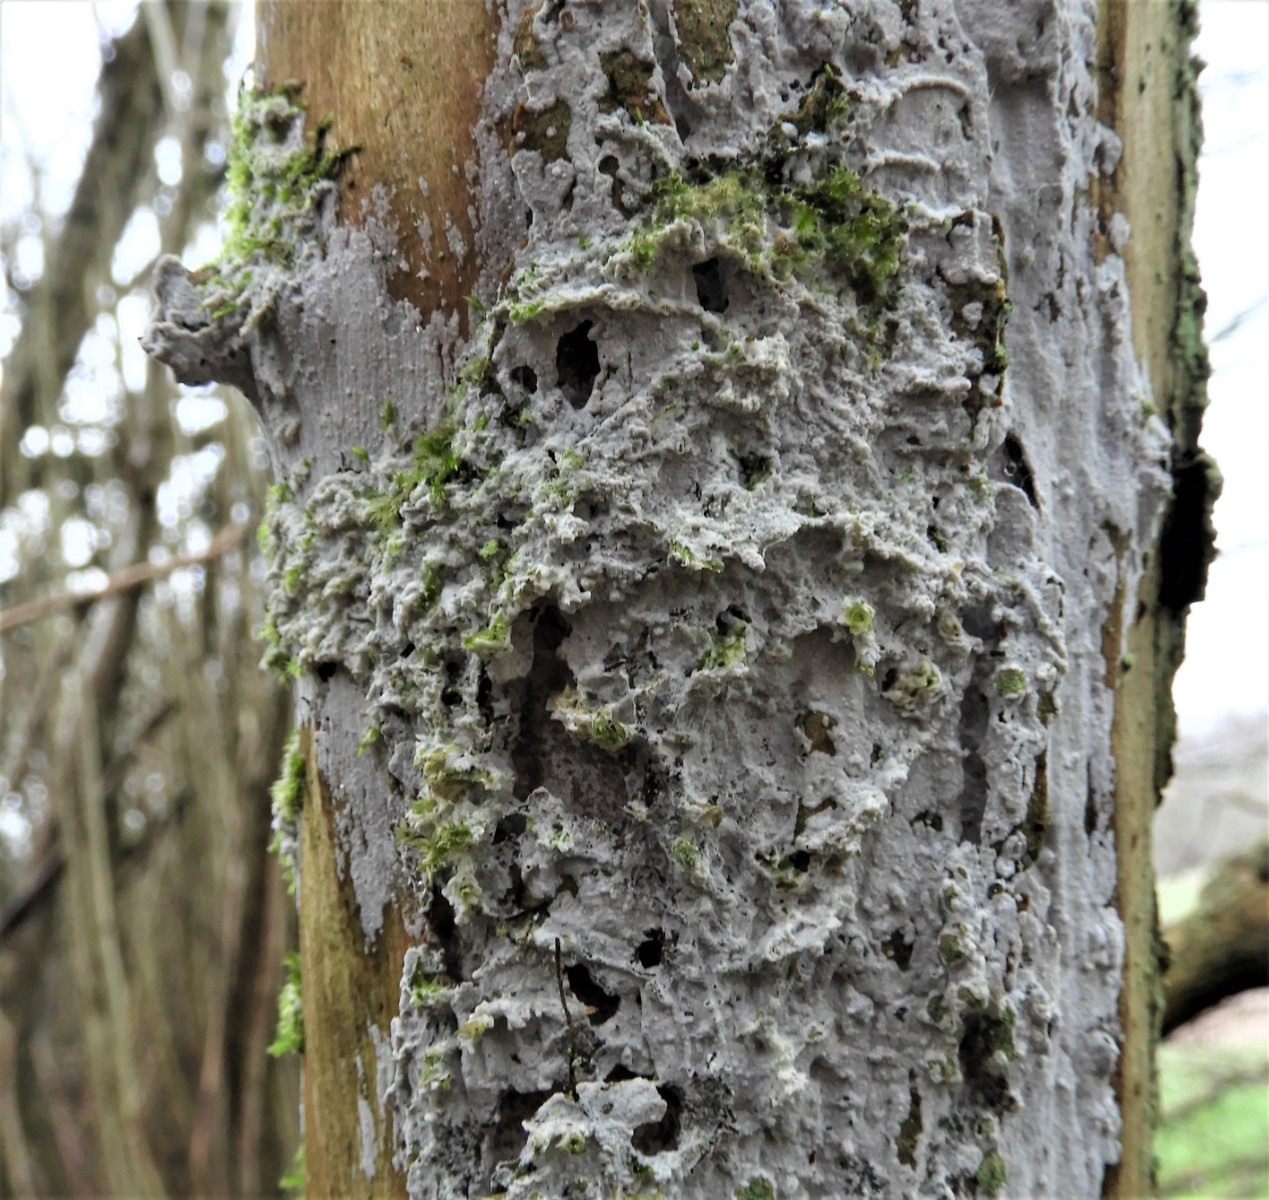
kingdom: Fungi
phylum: Basidiomycota
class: Agaricomycetes
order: Corticiales
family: Corticiaceae
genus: Lyomyces
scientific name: Lyomyces sambuci
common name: almindelig hyldehinde
